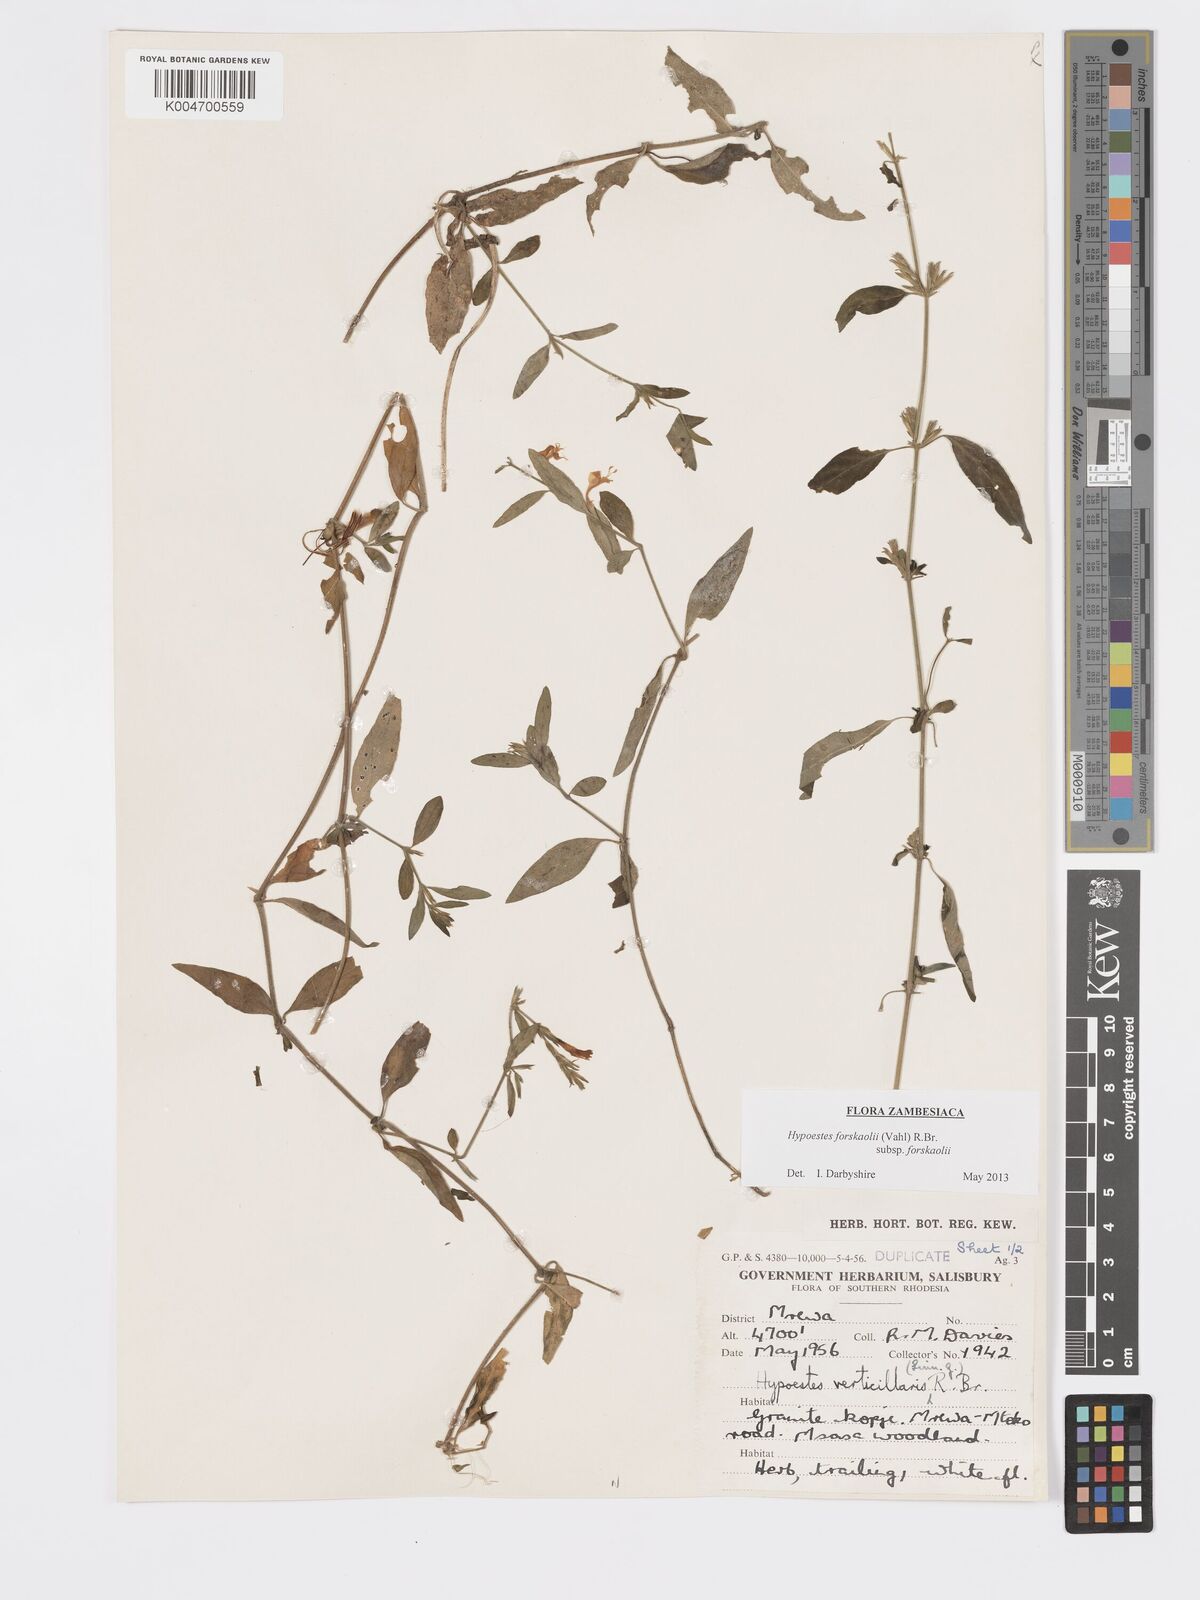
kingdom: Plantae
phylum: Tracheophyta
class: Magnoliopsida
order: Lamiales
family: Acanthaceae
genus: Hypoestes
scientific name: Hypoestes forskaolii
